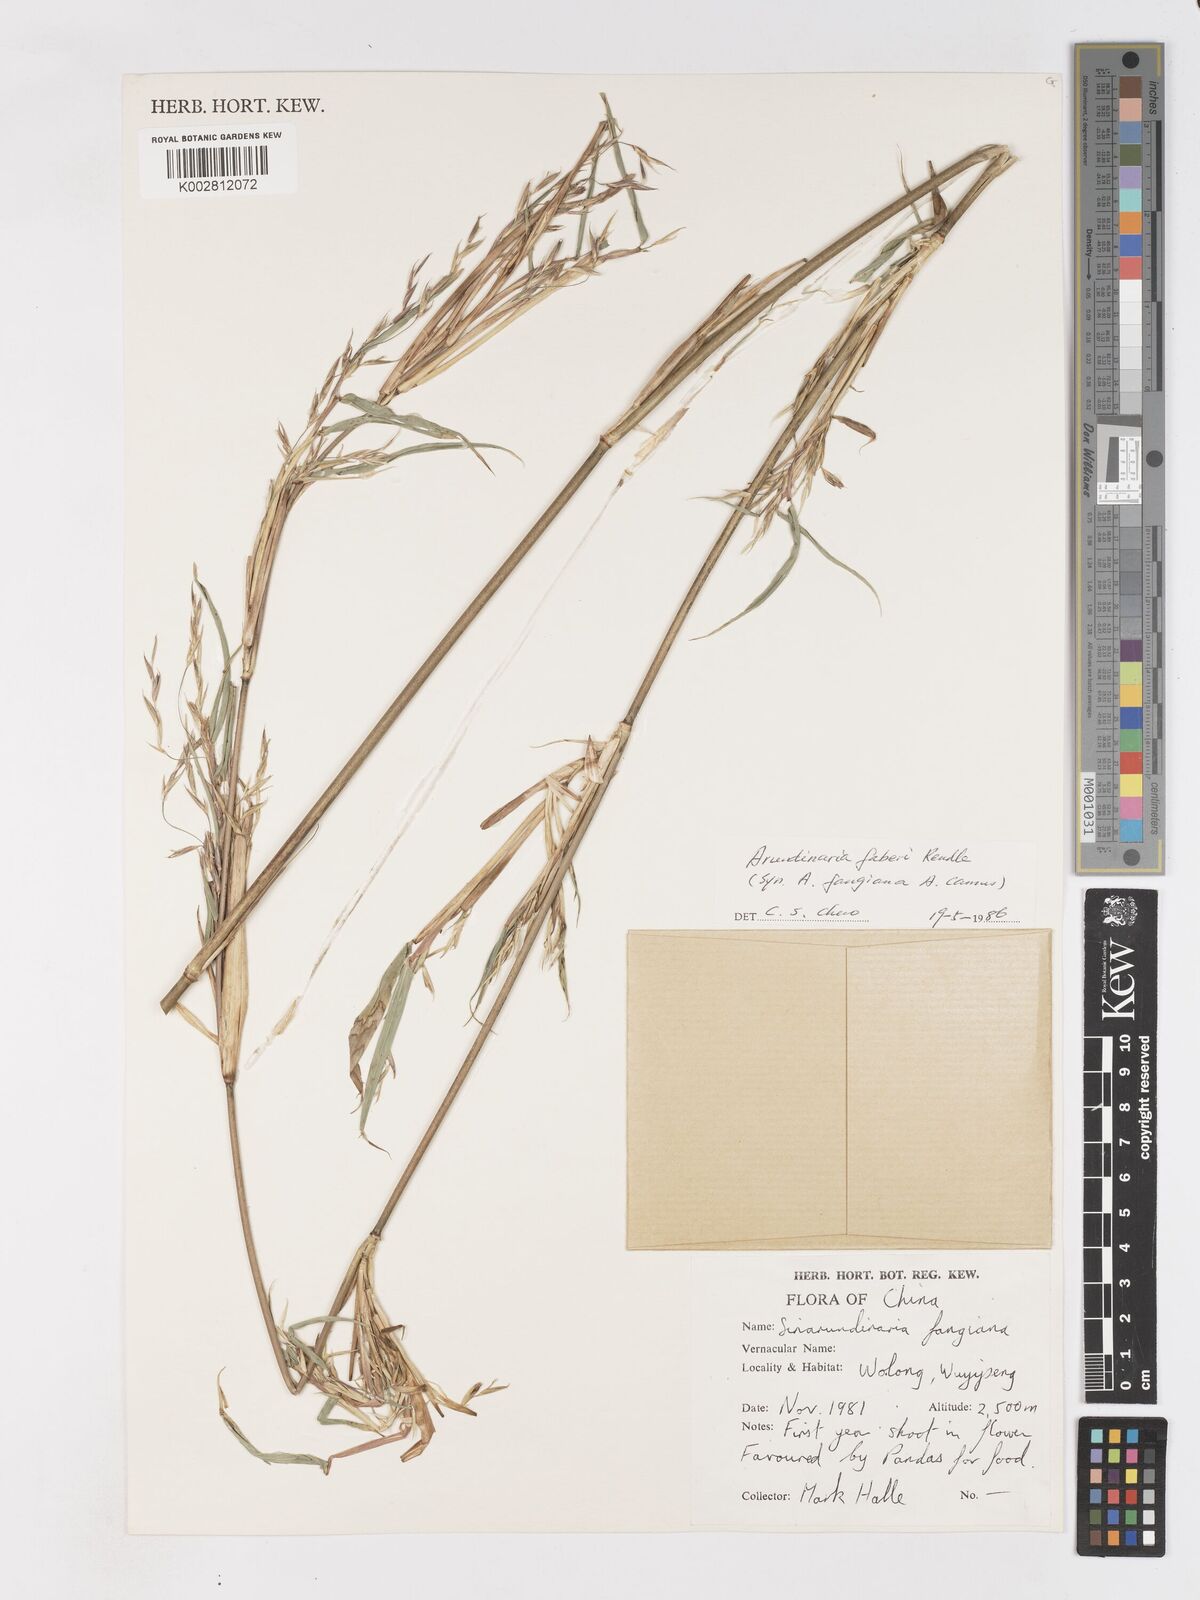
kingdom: Plantae
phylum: Tracheophyta
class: Liliopsida
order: Poales
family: Poaceae
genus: Sarocalamus
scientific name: Sarocalamus faberi
